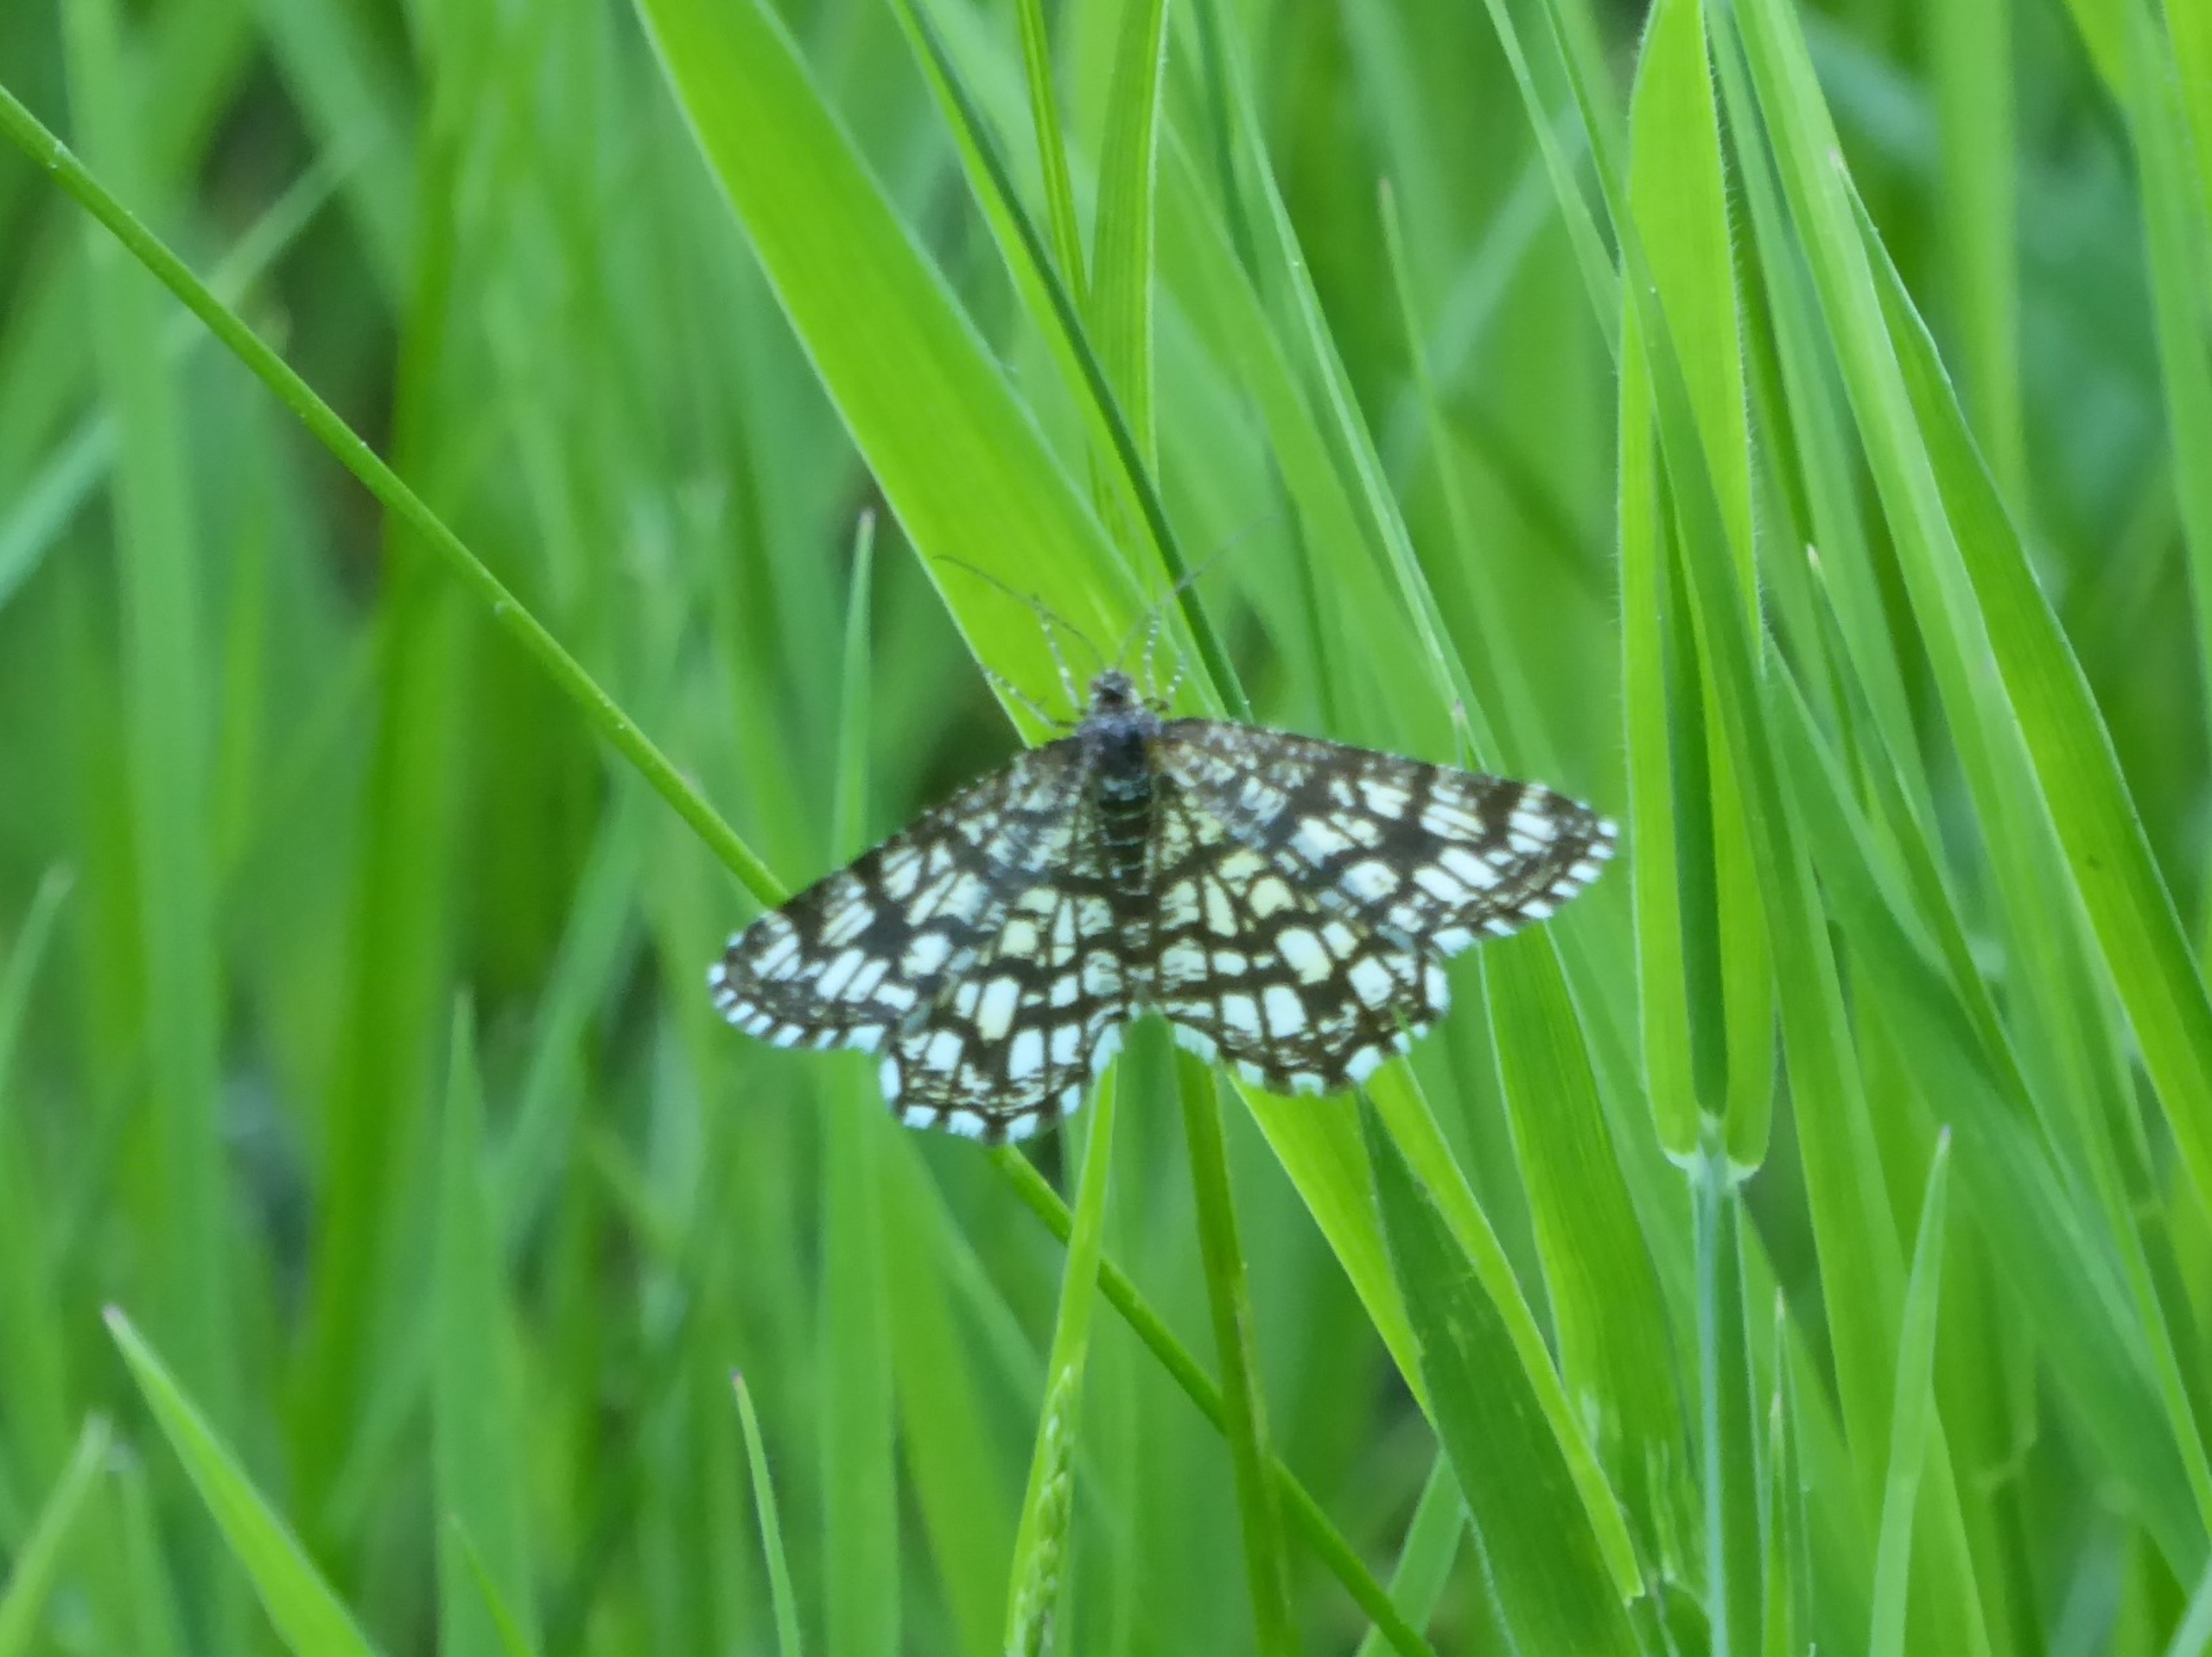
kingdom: Animalia
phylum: Arthropoda
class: Insecta
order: Lepidoptera
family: Geometridae
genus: Chiasmia
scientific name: Chiasmia clathrata
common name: Kløvermåler
